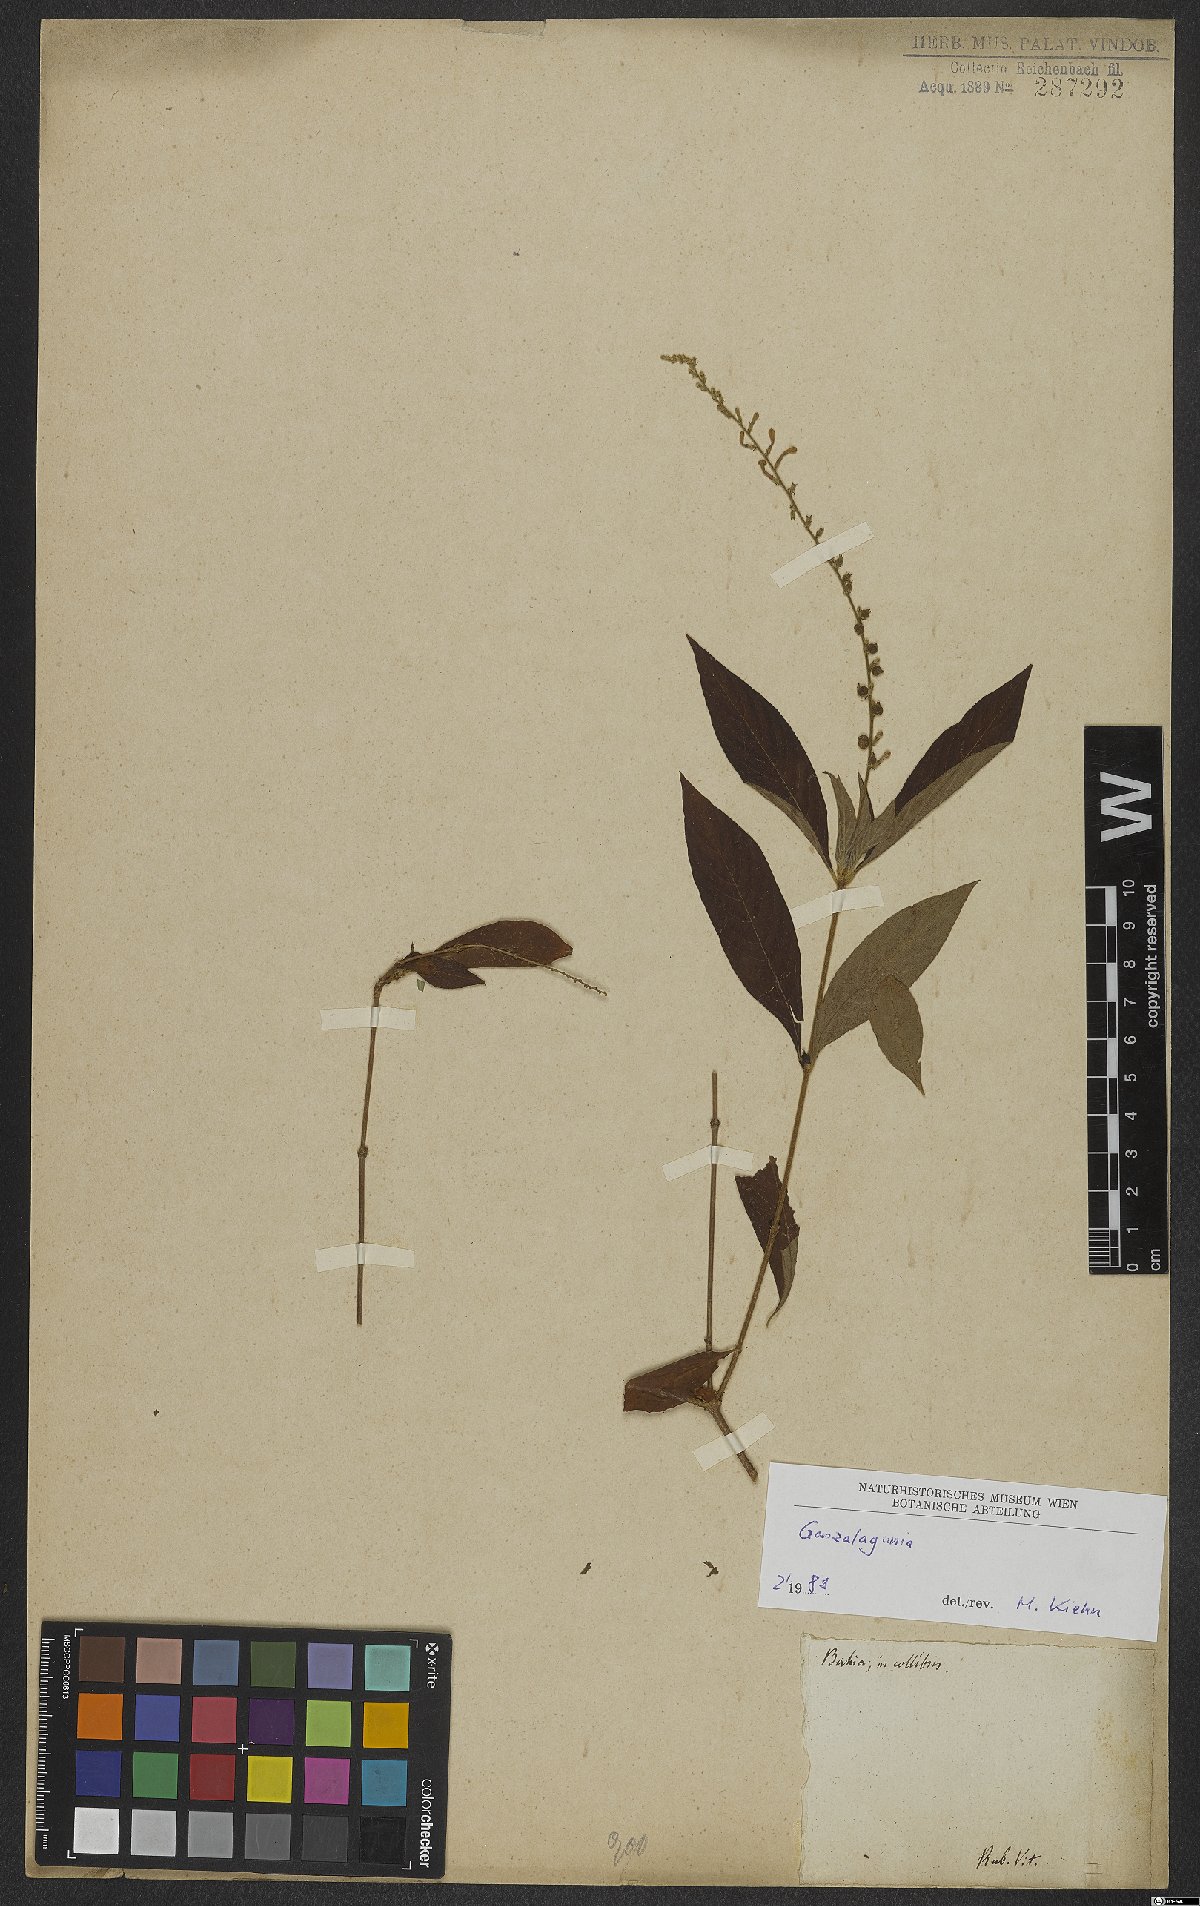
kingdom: Plantae
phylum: Tracheophyta
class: Magnoliopsida
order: Gentianales
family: Rubiaceae
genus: Gonzalagunia
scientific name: Gonzalagunia
